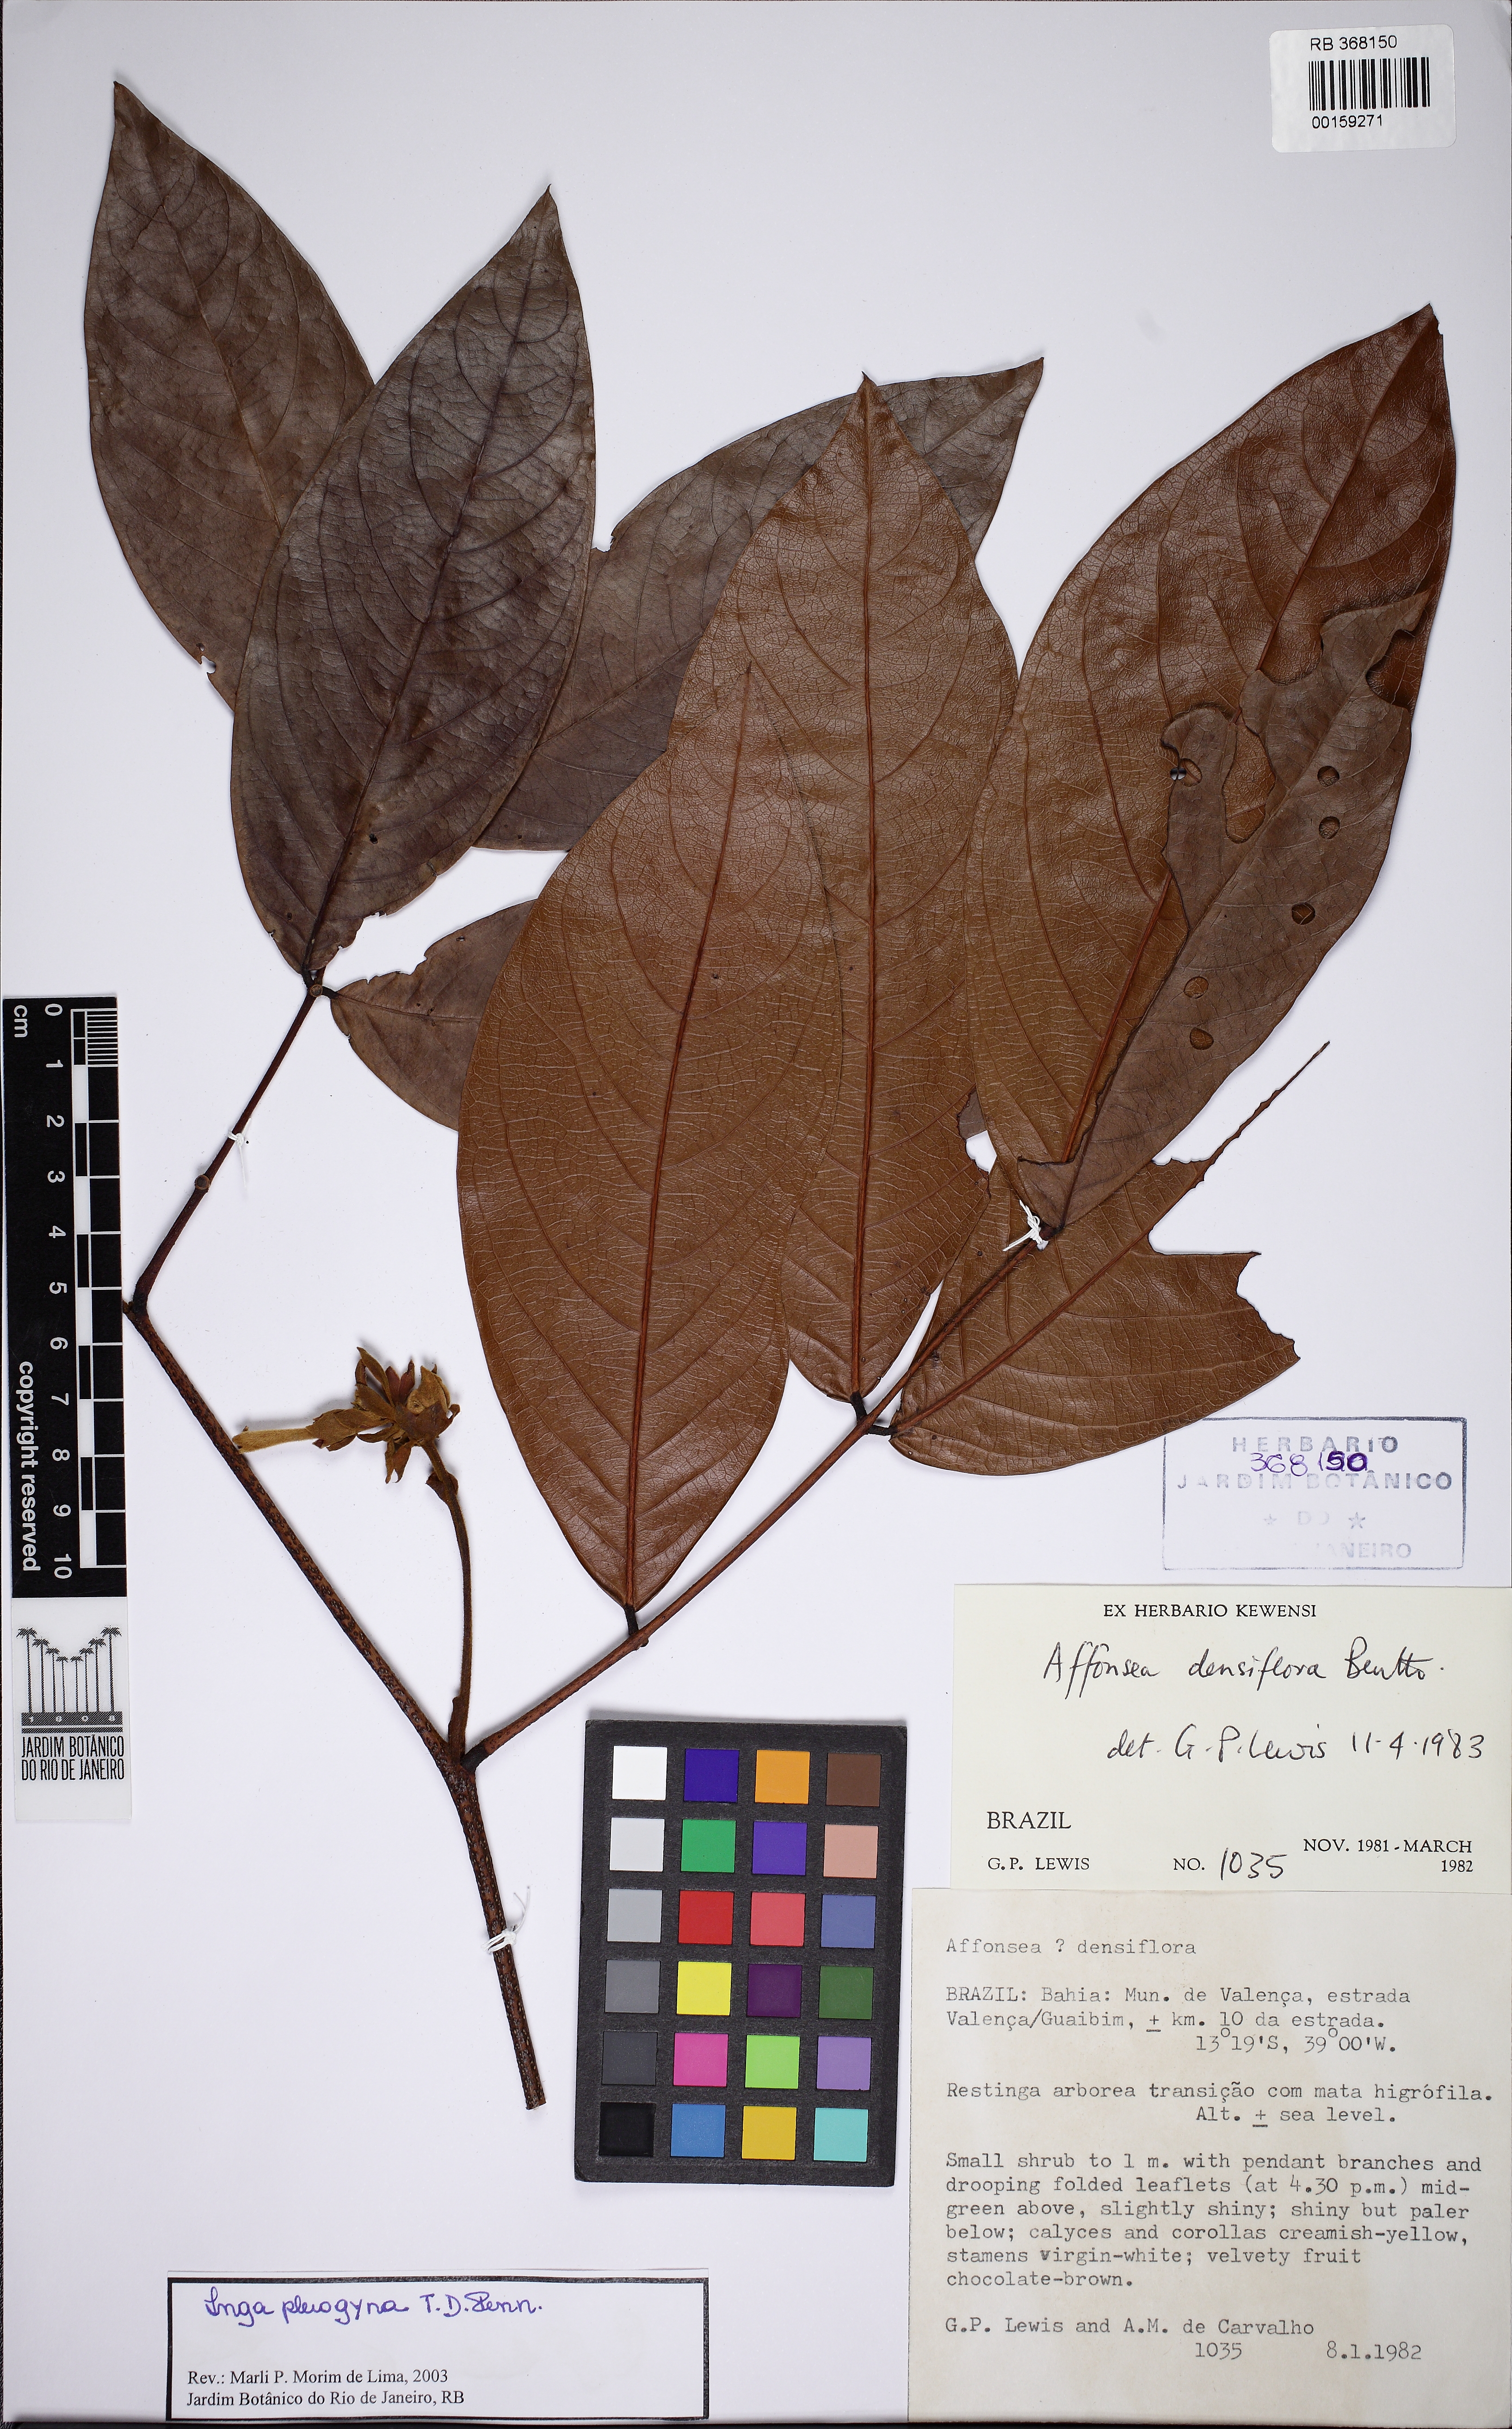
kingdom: Plantae
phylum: Tracheophyta
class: Magnoliopsida
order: Fabales
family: Fabaceae
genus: Inga
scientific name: Inga pleiogyna
